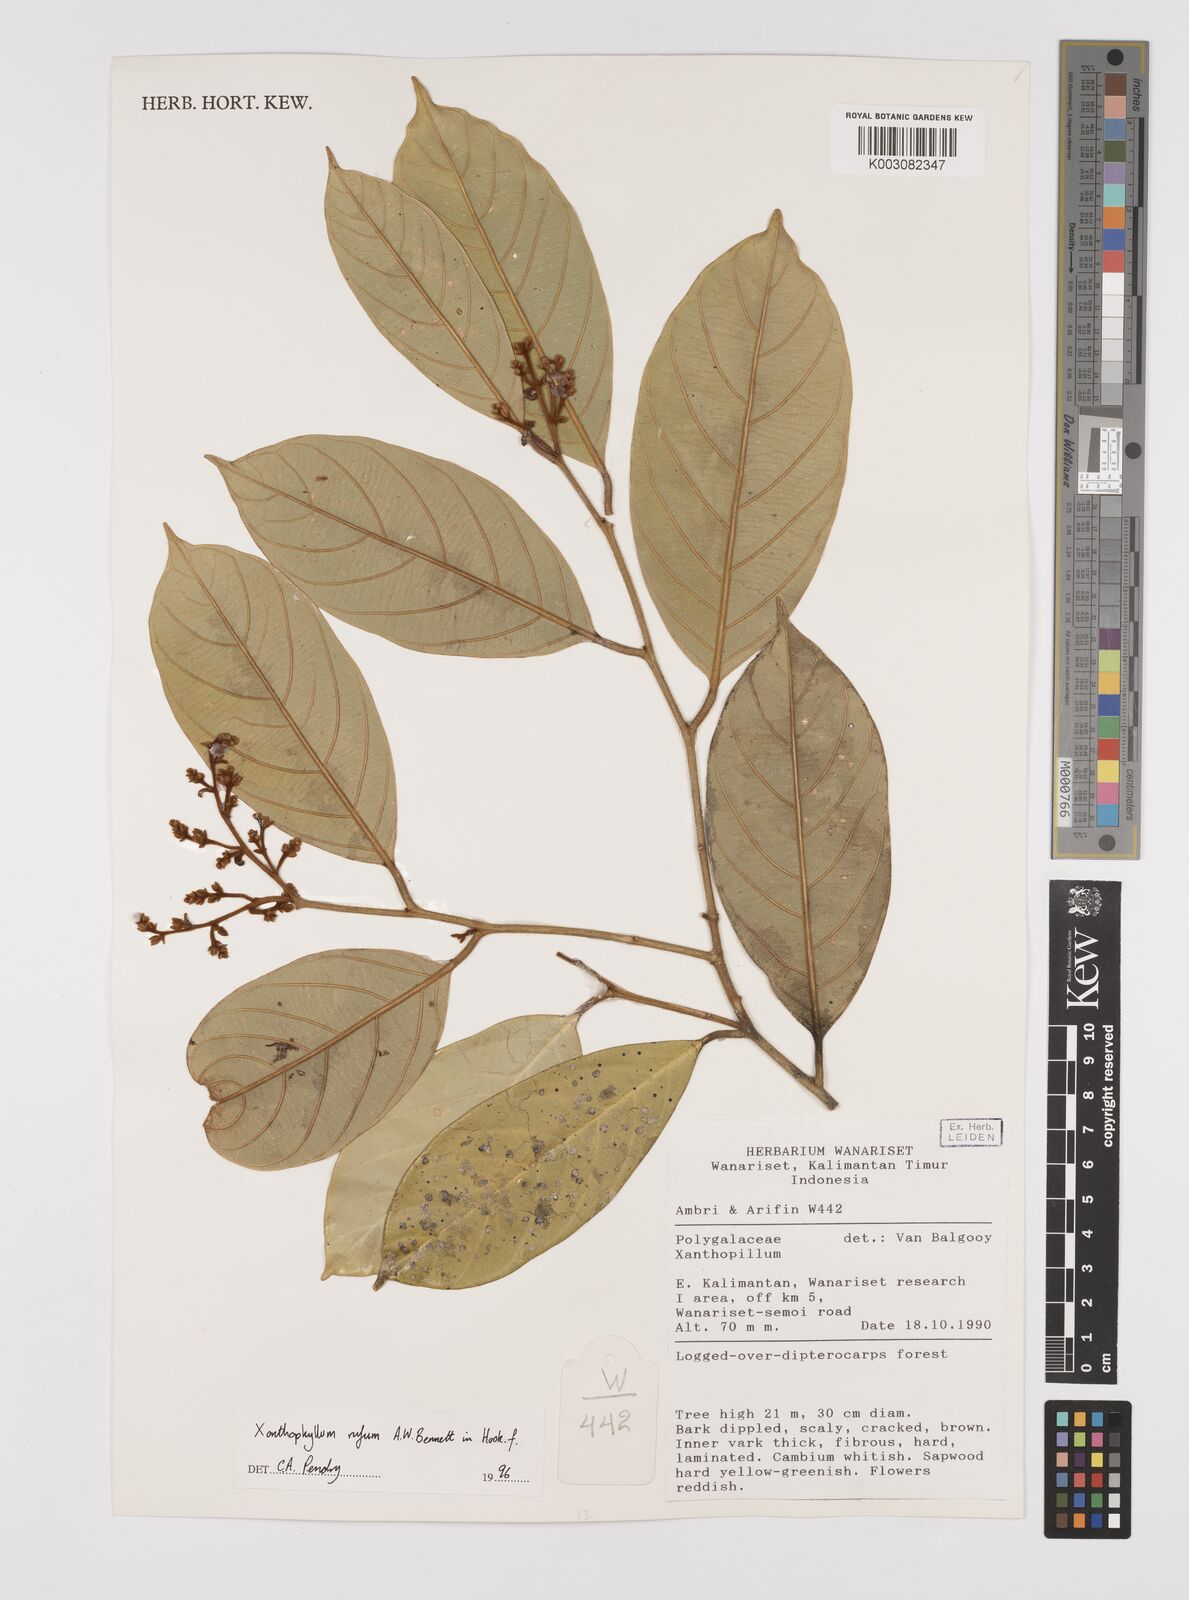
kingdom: Plantae
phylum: Tracheophyta
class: Magnoliopsida
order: Fabales
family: Polygalaceae
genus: Xanthophyllum
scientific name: Xanthophyllum rufum
